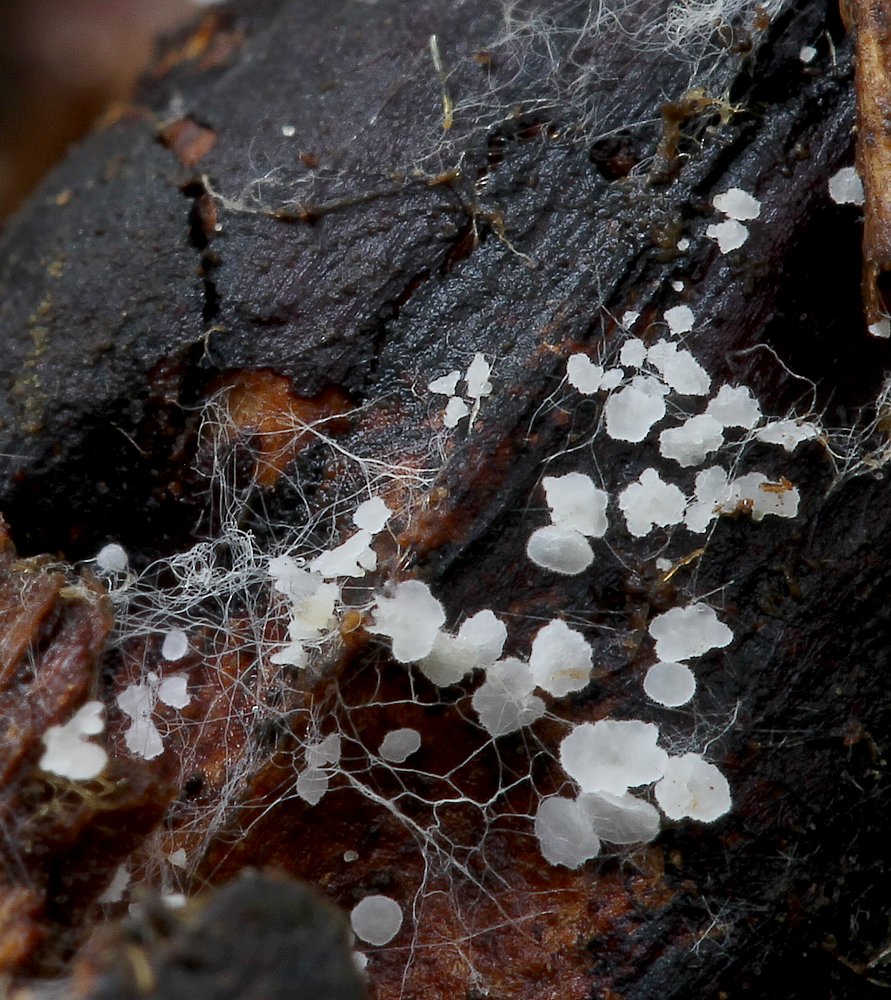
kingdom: Fungi
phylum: Ascomycota
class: Leotiomycetes
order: Helotiales
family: Hyaloscyphaceae
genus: Psilocistella
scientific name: Psilocistella conincola
